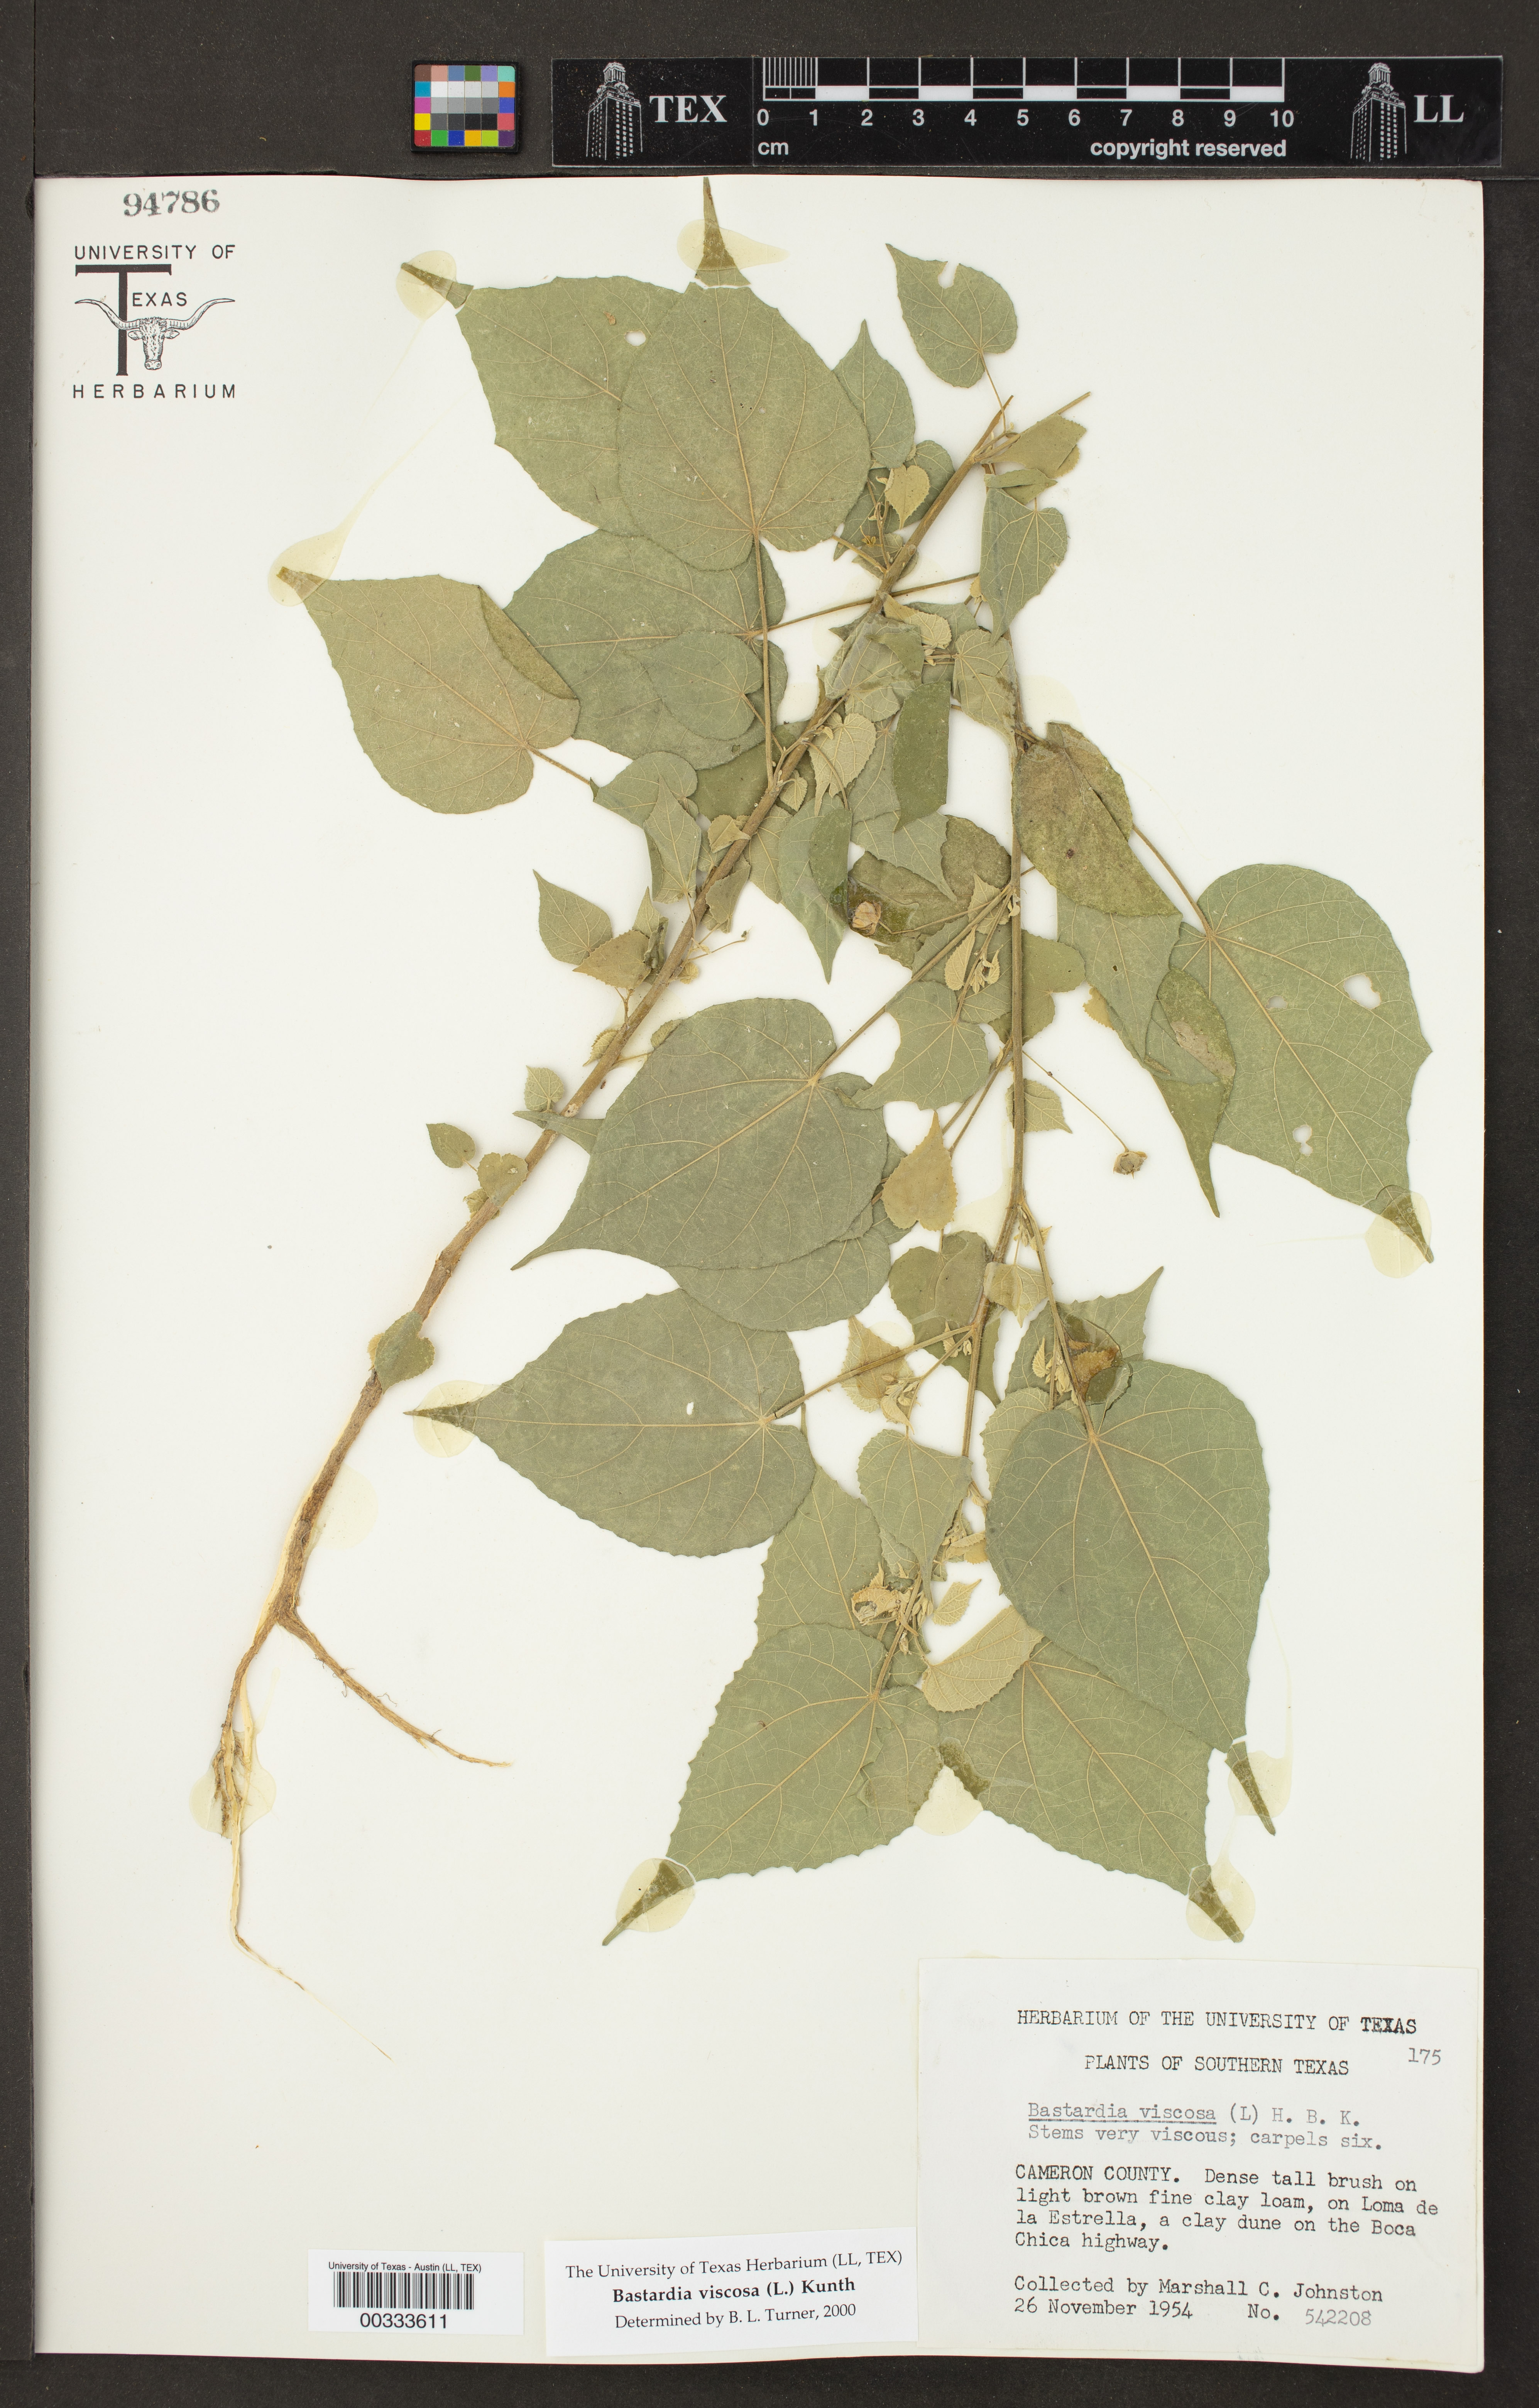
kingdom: Plantae
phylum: Tracheophyta
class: Magnoliopsida
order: Malvales
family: Malvaceae
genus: Abutilon
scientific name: Abutilon viscosum
